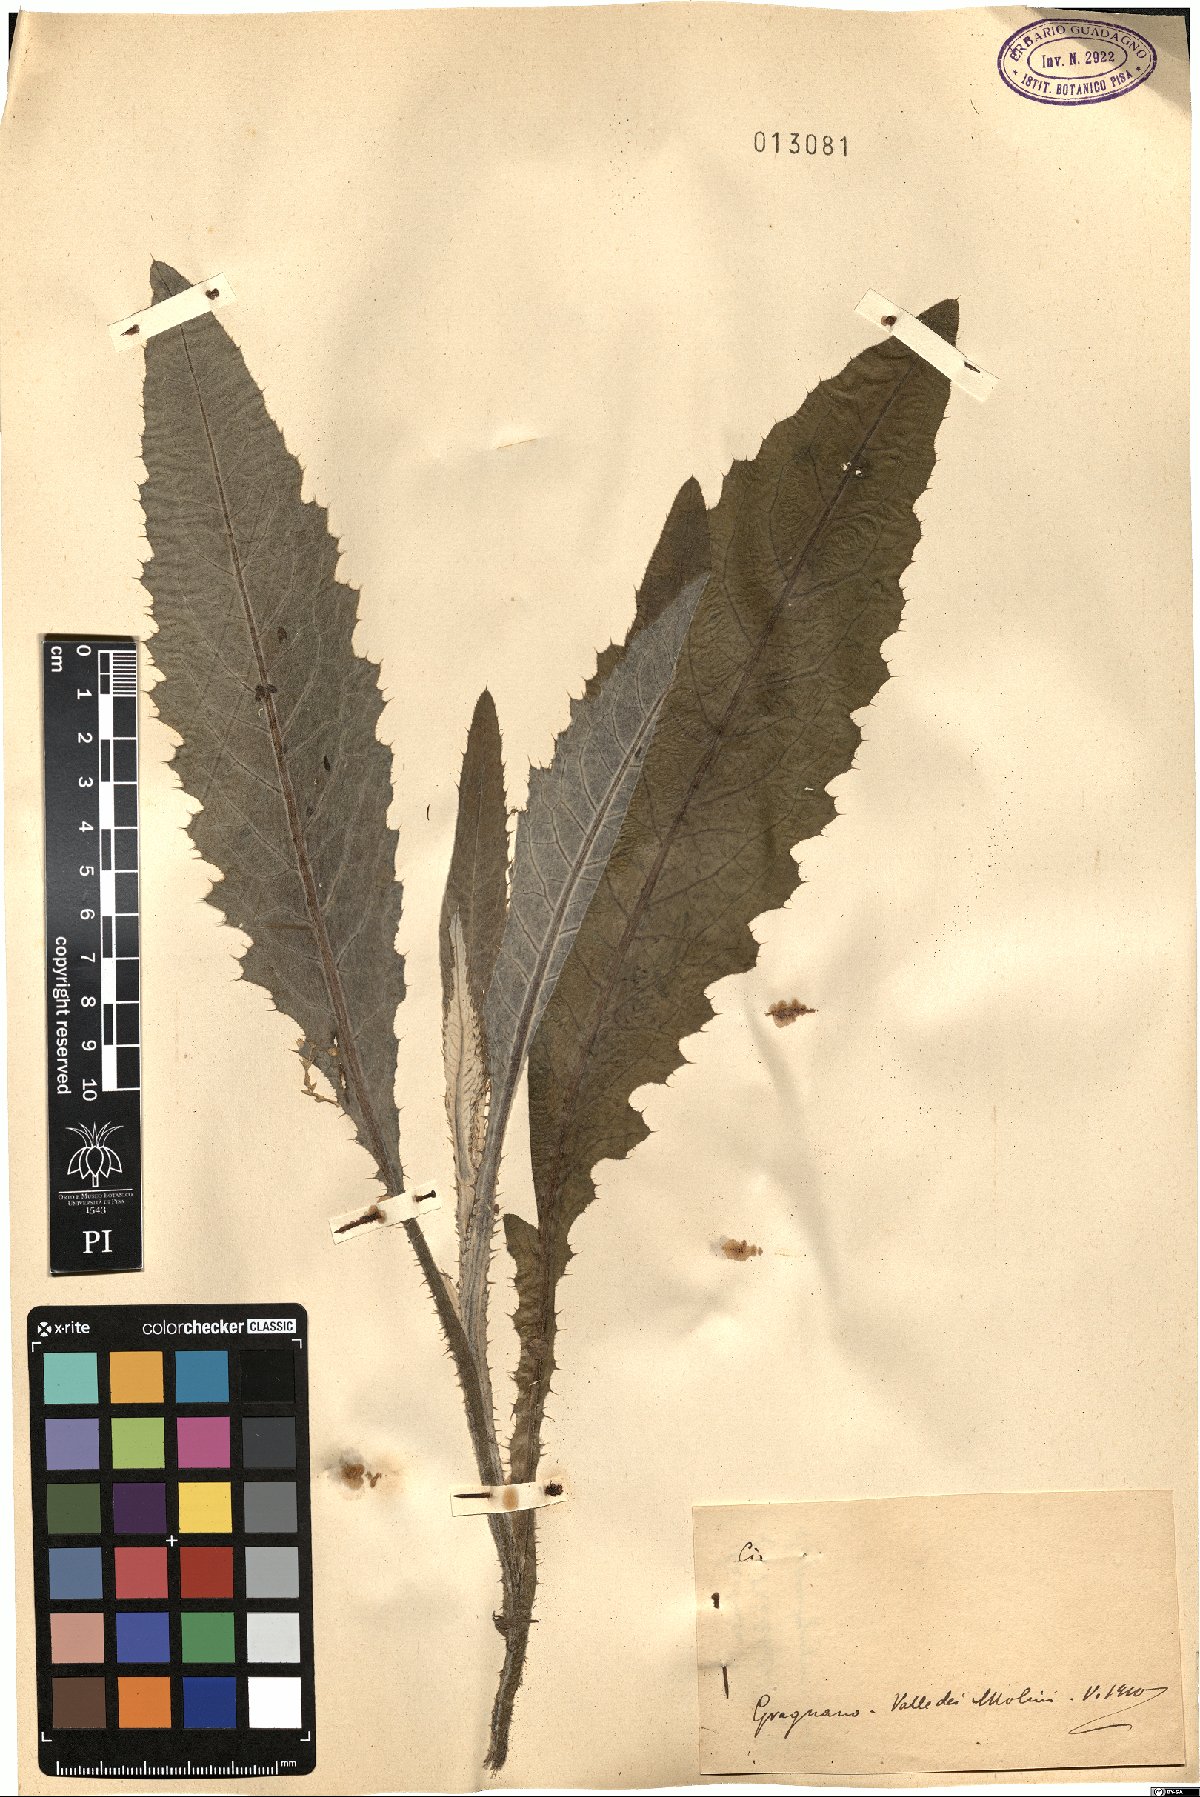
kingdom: Plantae
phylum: Tracheophyta
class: Magnoliopsida
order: Asterales
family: Asteraceae
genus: Cirsium
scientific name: Cirsium
